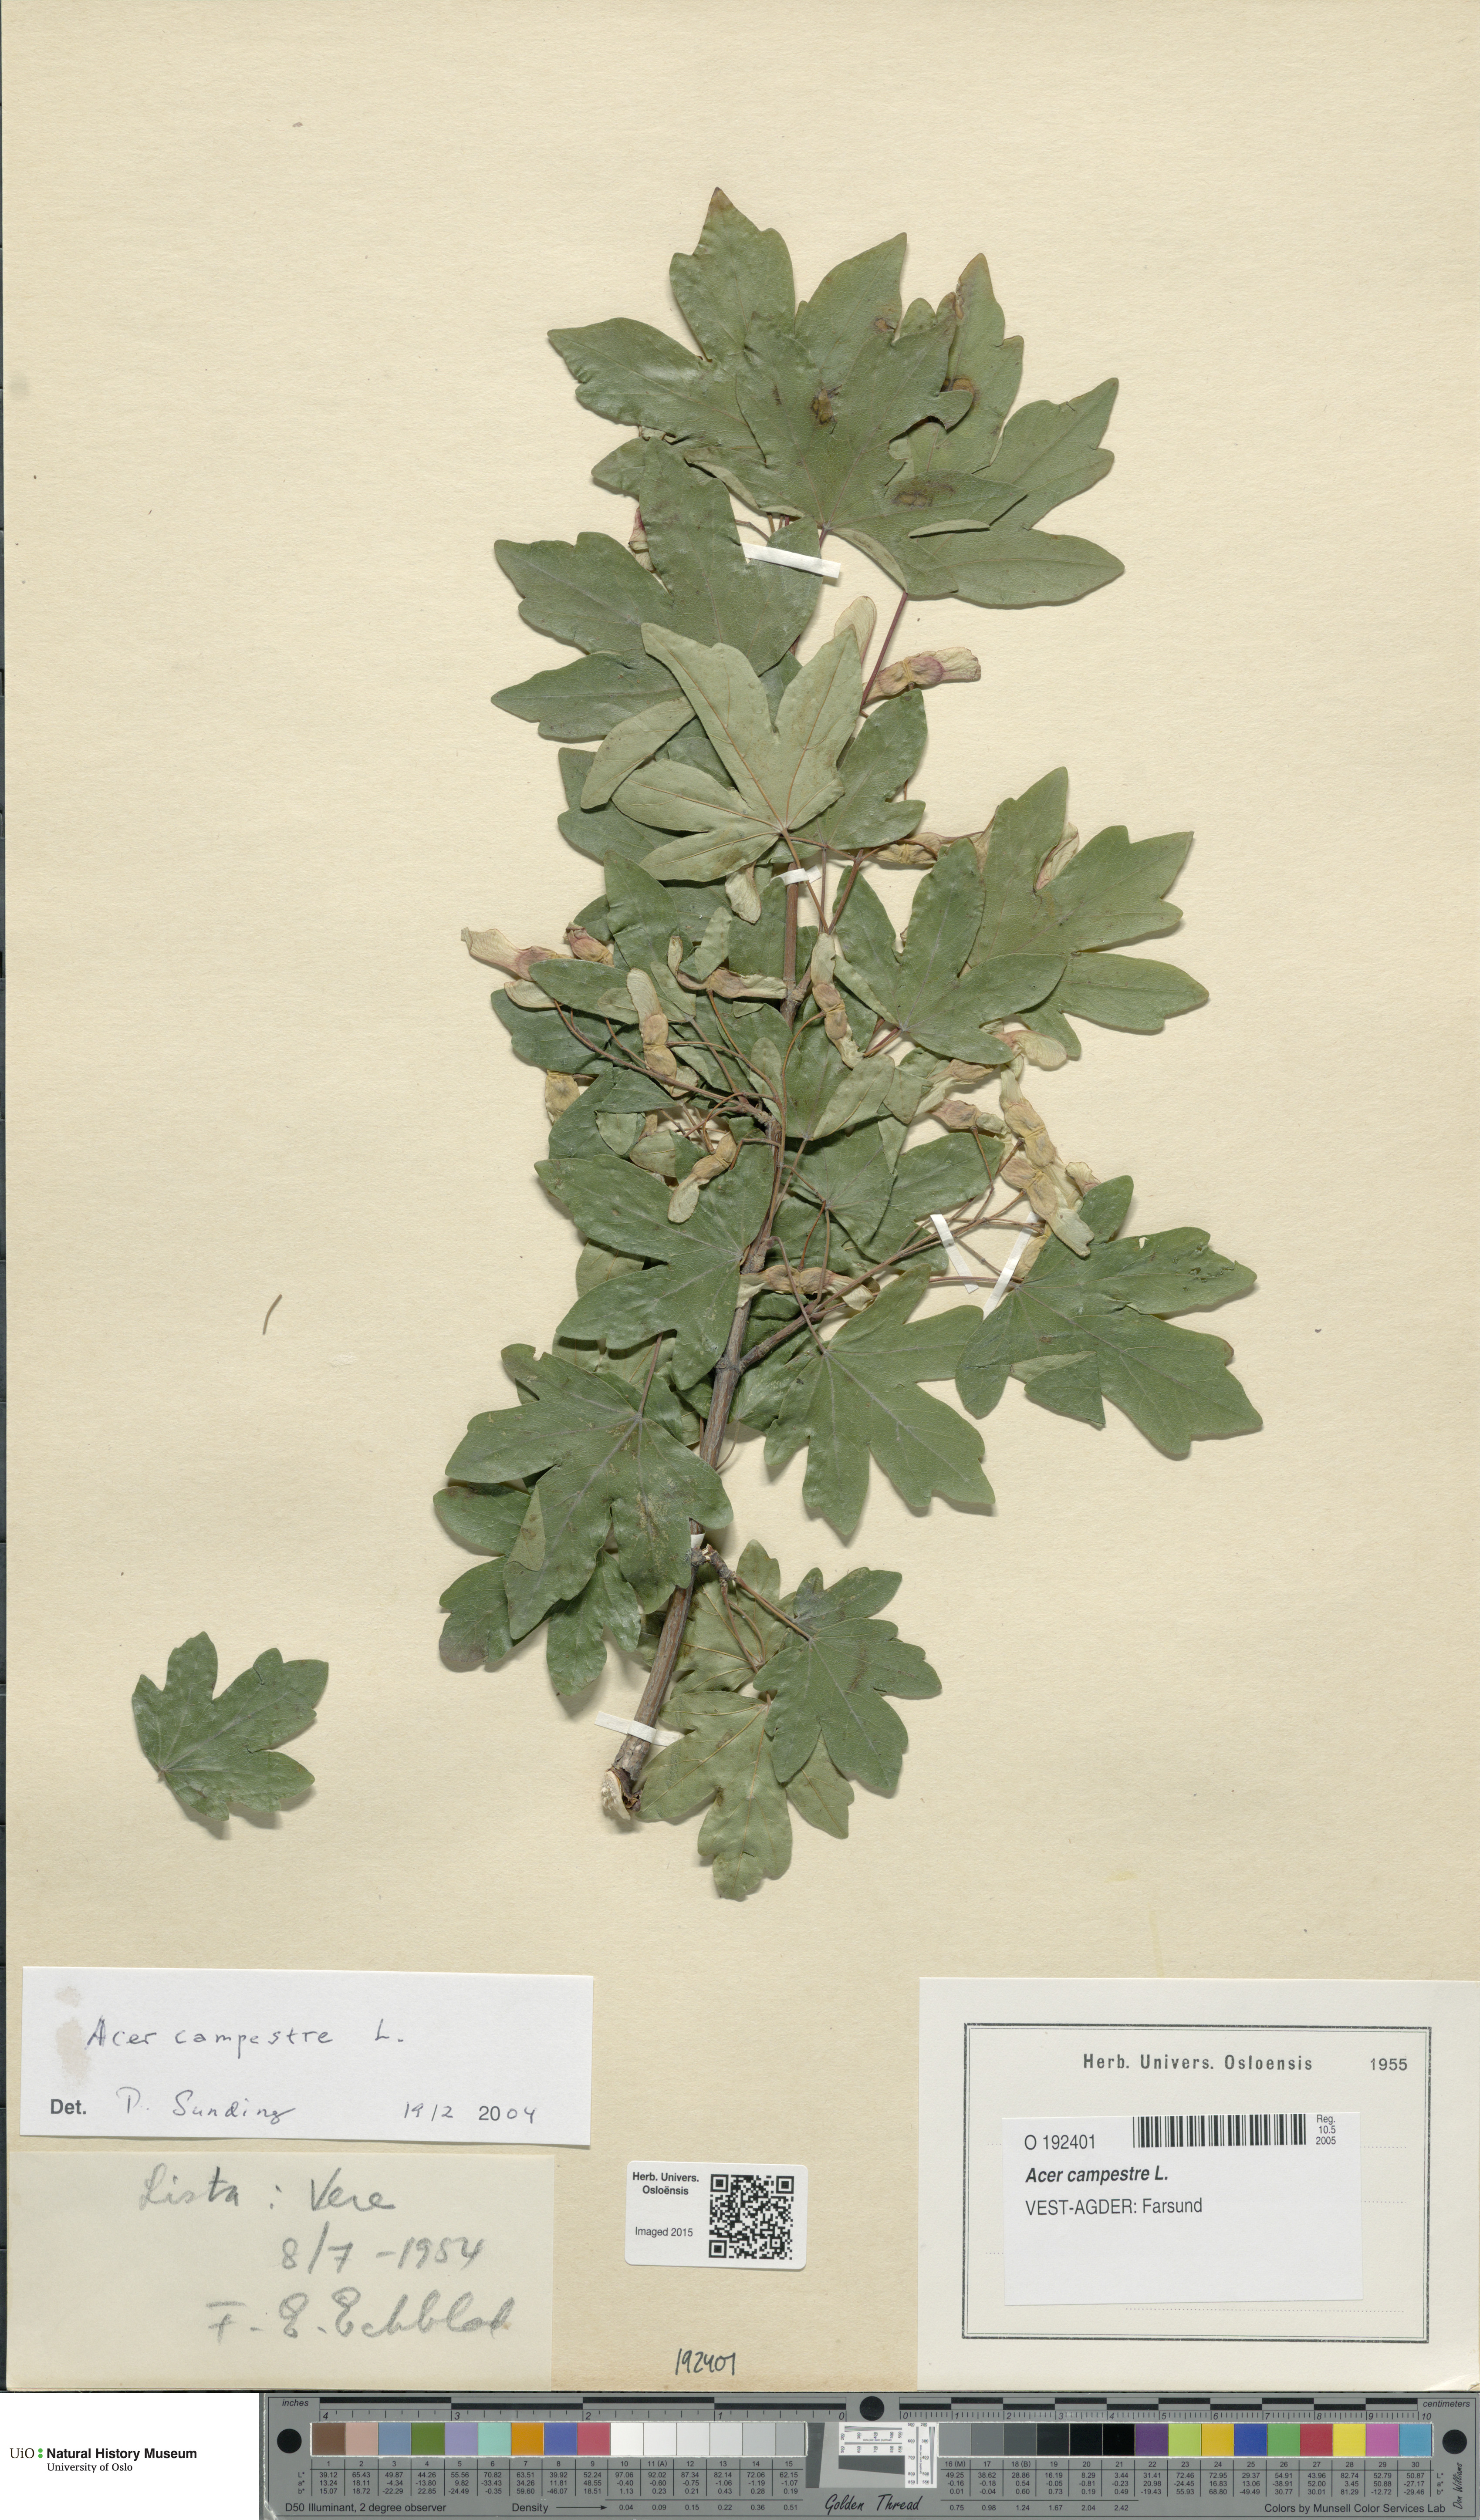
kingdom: Plantae
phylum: Tracheophyta
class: Magnoliopsida
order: Sapindales
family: Sapindaceae
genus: Acer
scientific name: Acer campestre
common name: Field maple
